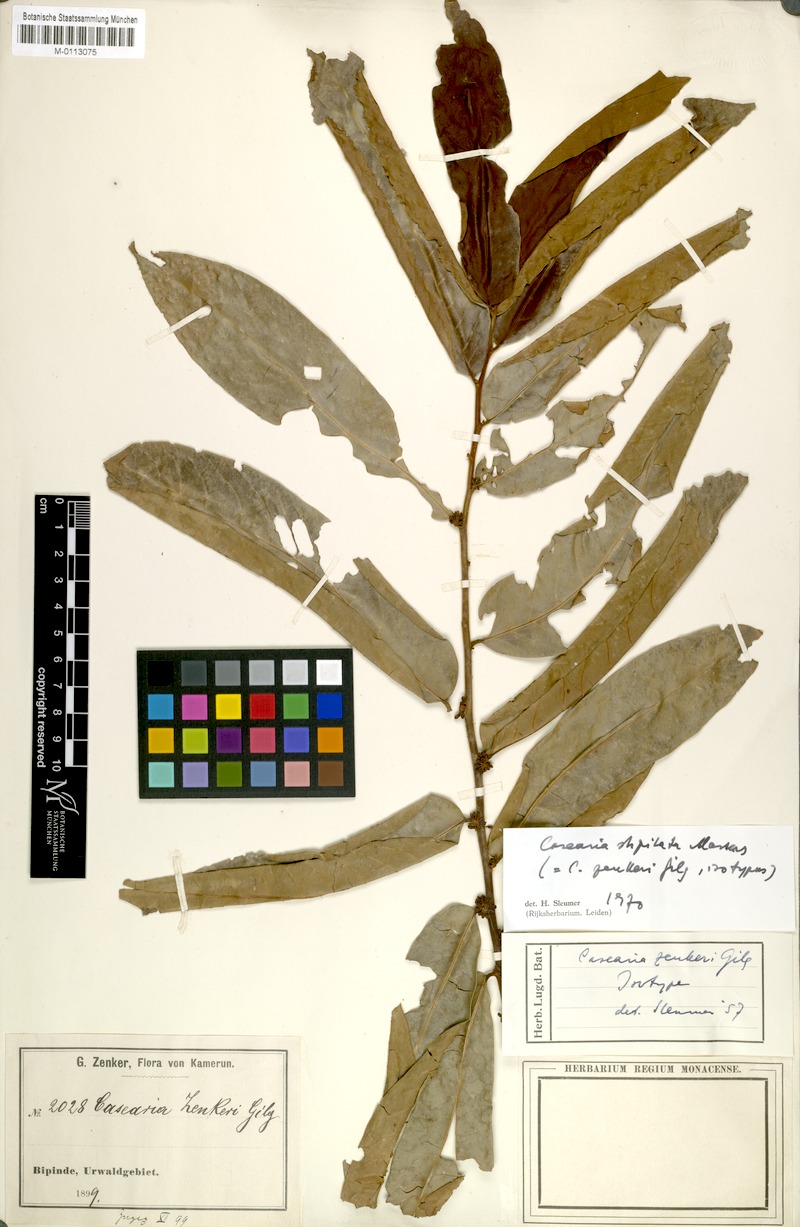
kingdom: Plantae
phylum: Tracheophyta
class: Magnoliopsida
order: Malpighiales
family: Salicaceae
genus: Casearia
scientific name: Casearia stipitata
